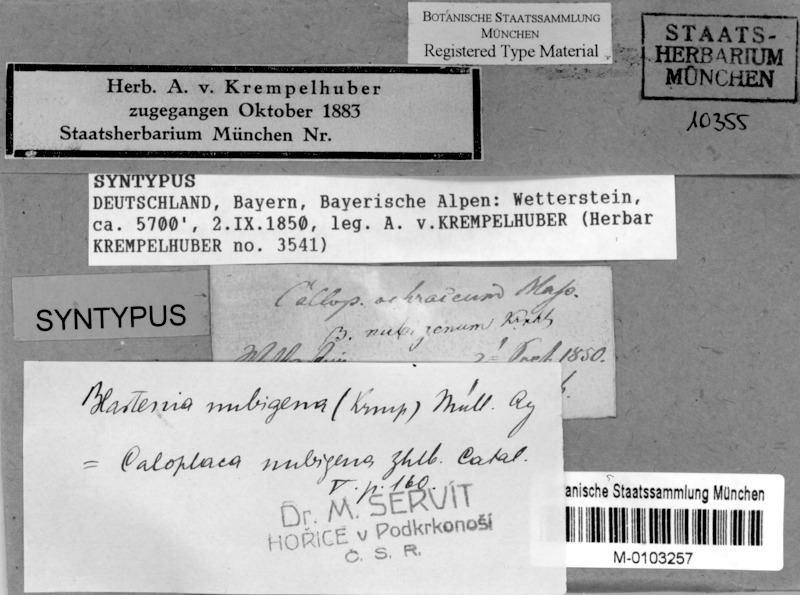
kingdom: Fungi
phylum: Ascomycota
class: Lecanoromycetes
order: Teloschistales
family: Teloschistaceae
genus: Caloplaca
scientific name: Caloplaca nubigena
